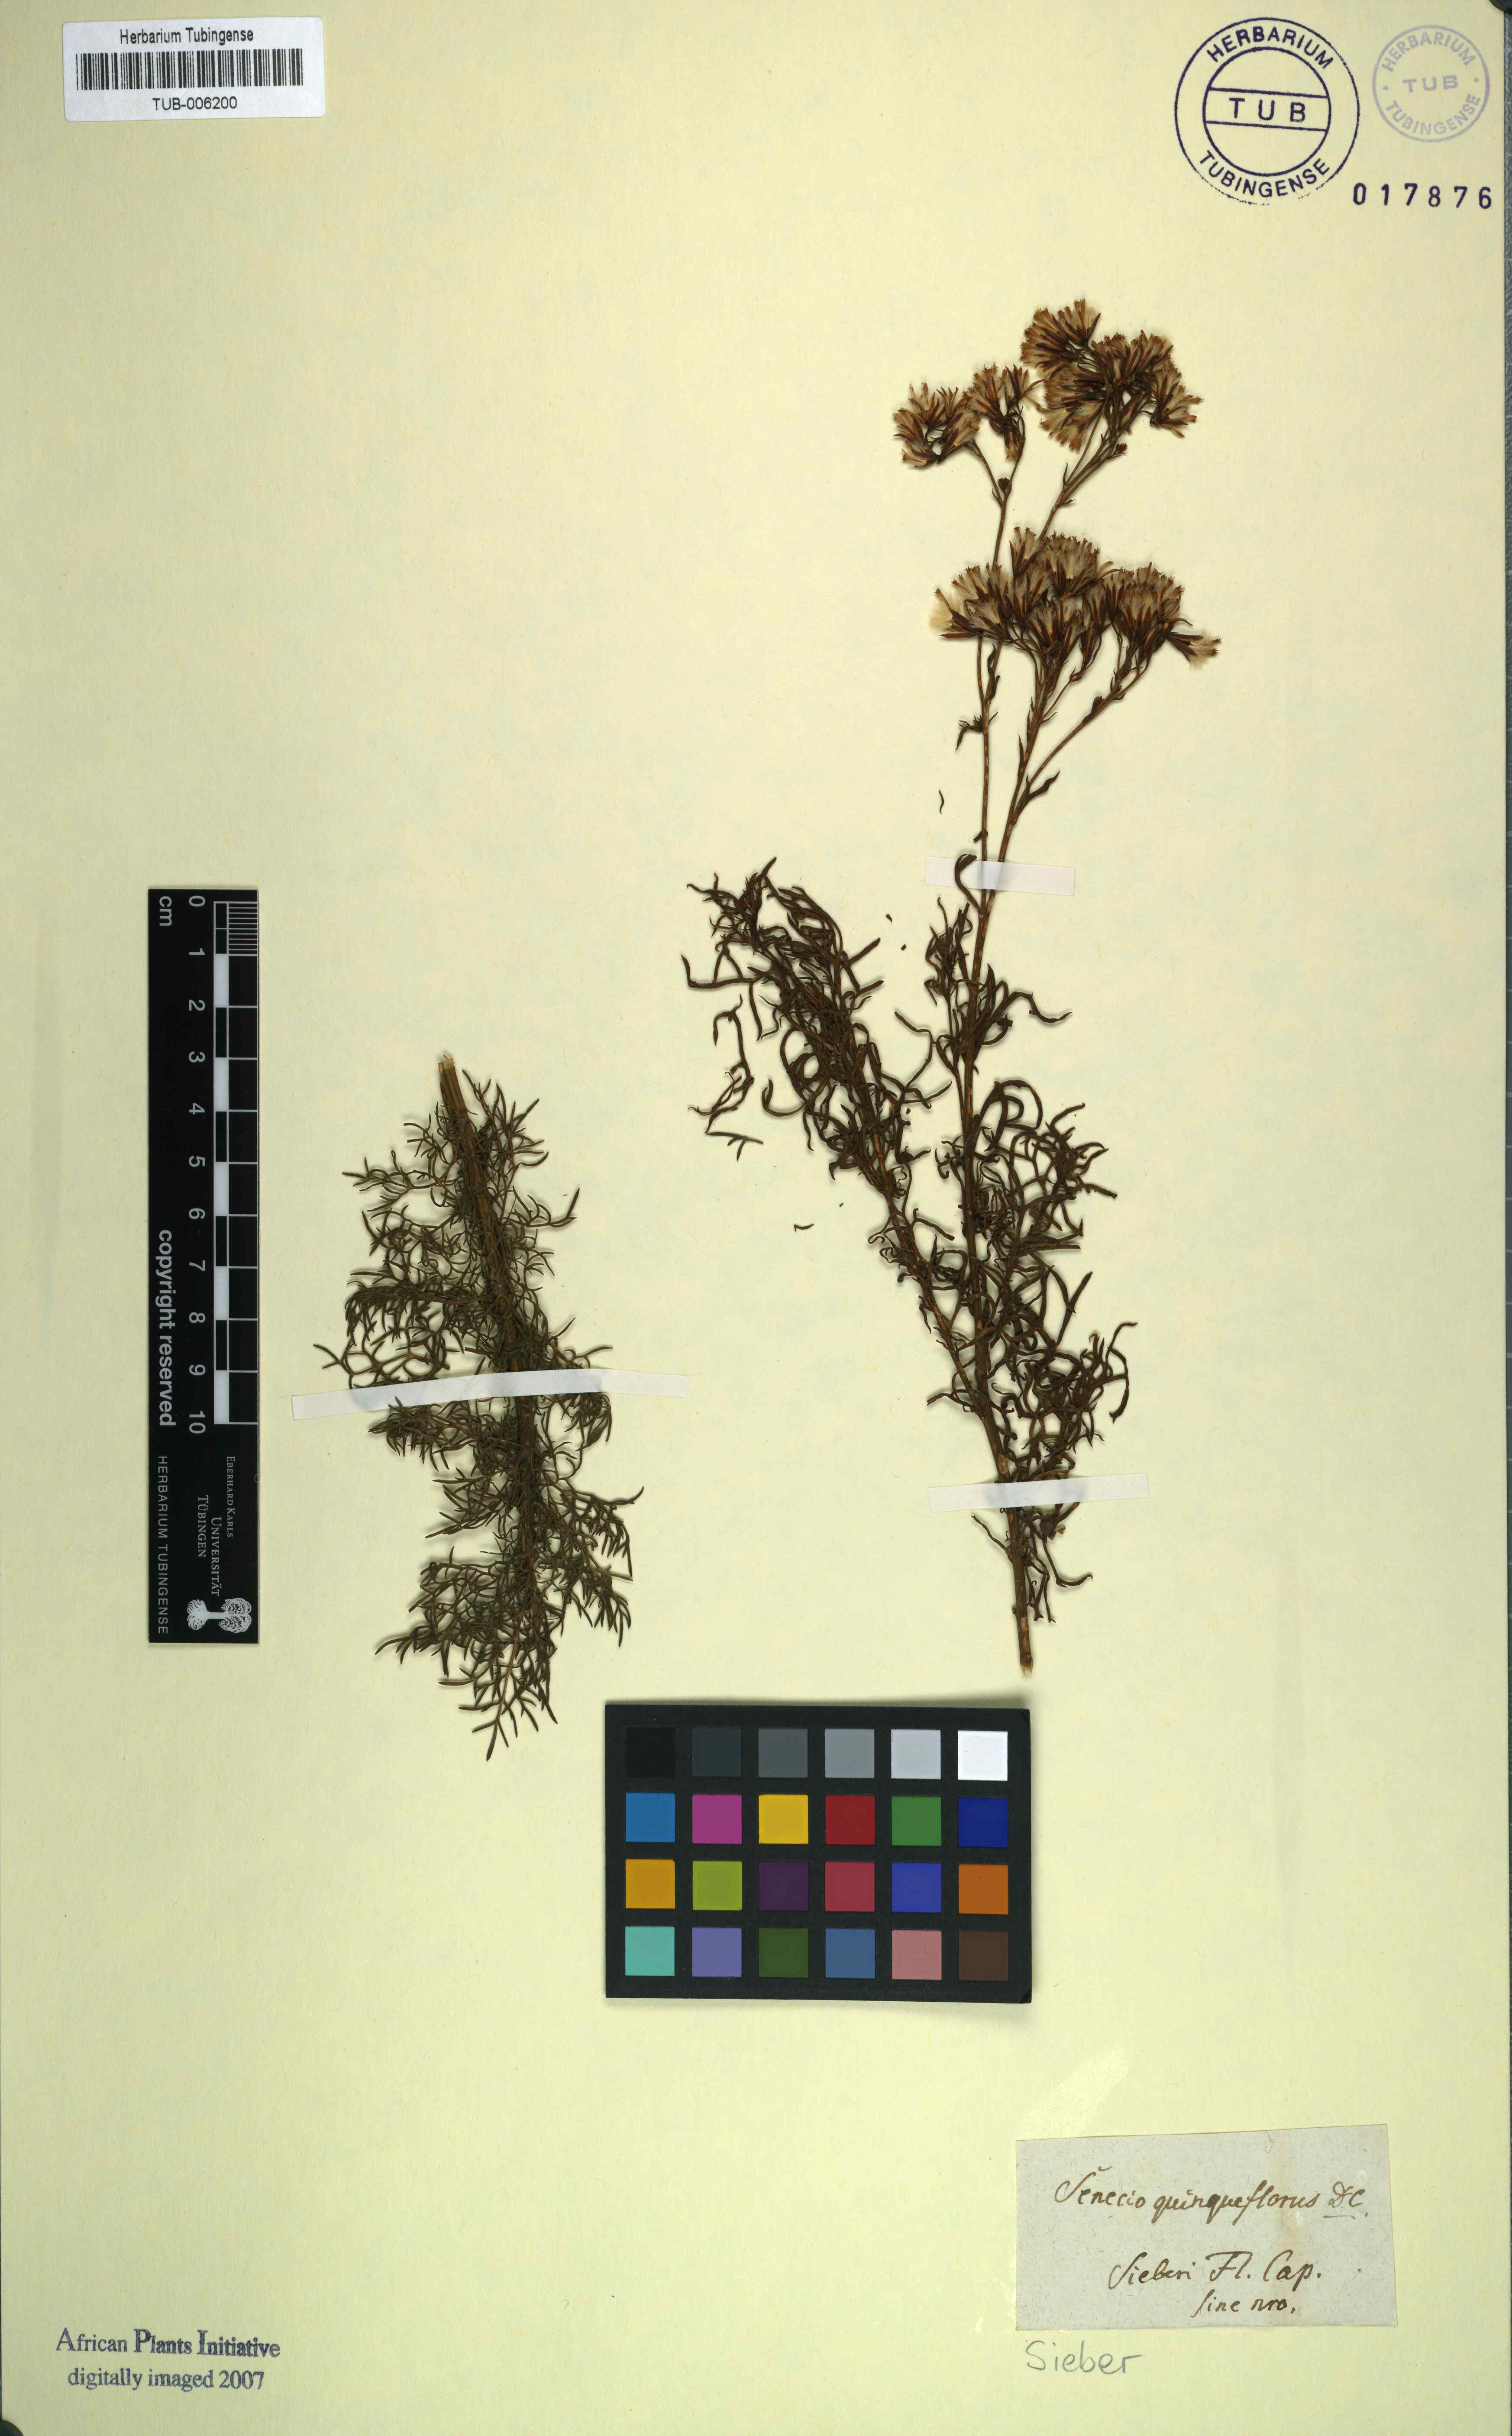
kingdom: Plantae
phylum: Tracheophyta
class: Magnoliopsida
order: Asterales
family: Asteraceae
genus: Senecio
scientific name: Senecio bipinnatus
